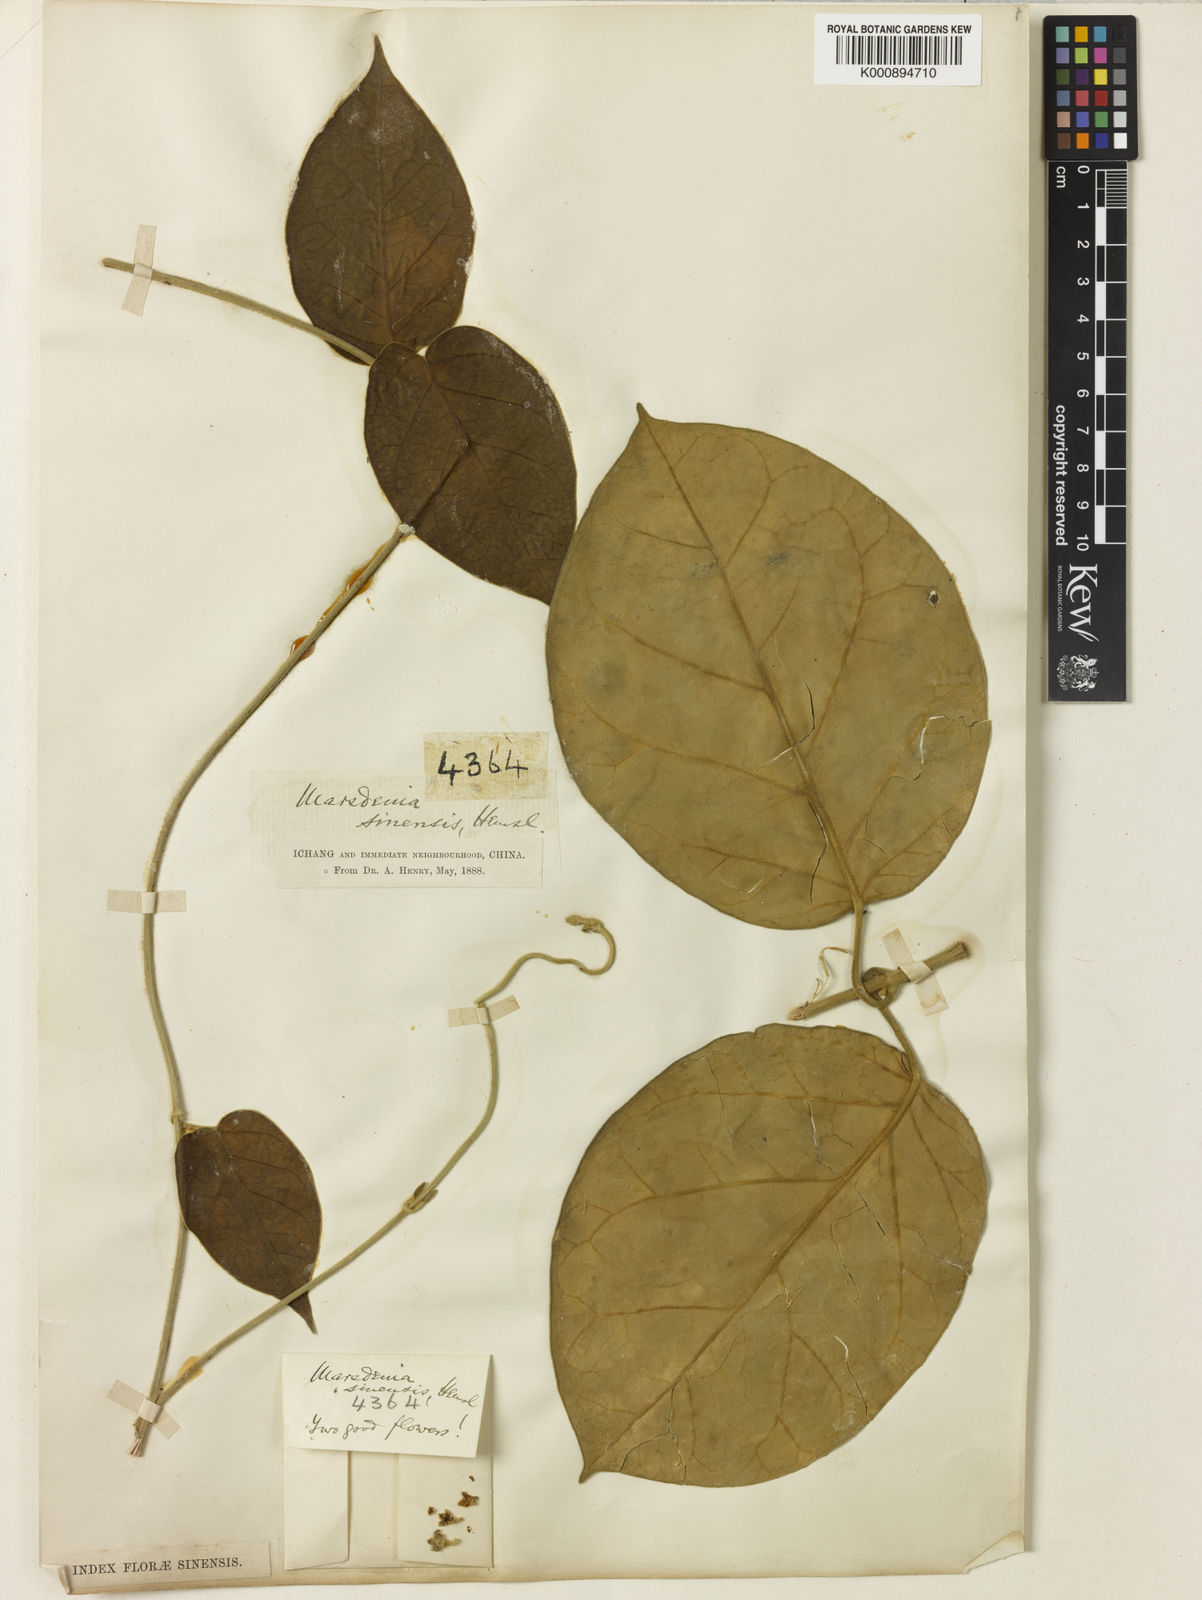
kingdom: Plantae
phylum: Tracheophyta
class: Magnoliopsida
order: Gentianales
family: Apocynaceae
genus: Marsdenia
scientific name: Marsdenia sinensis
